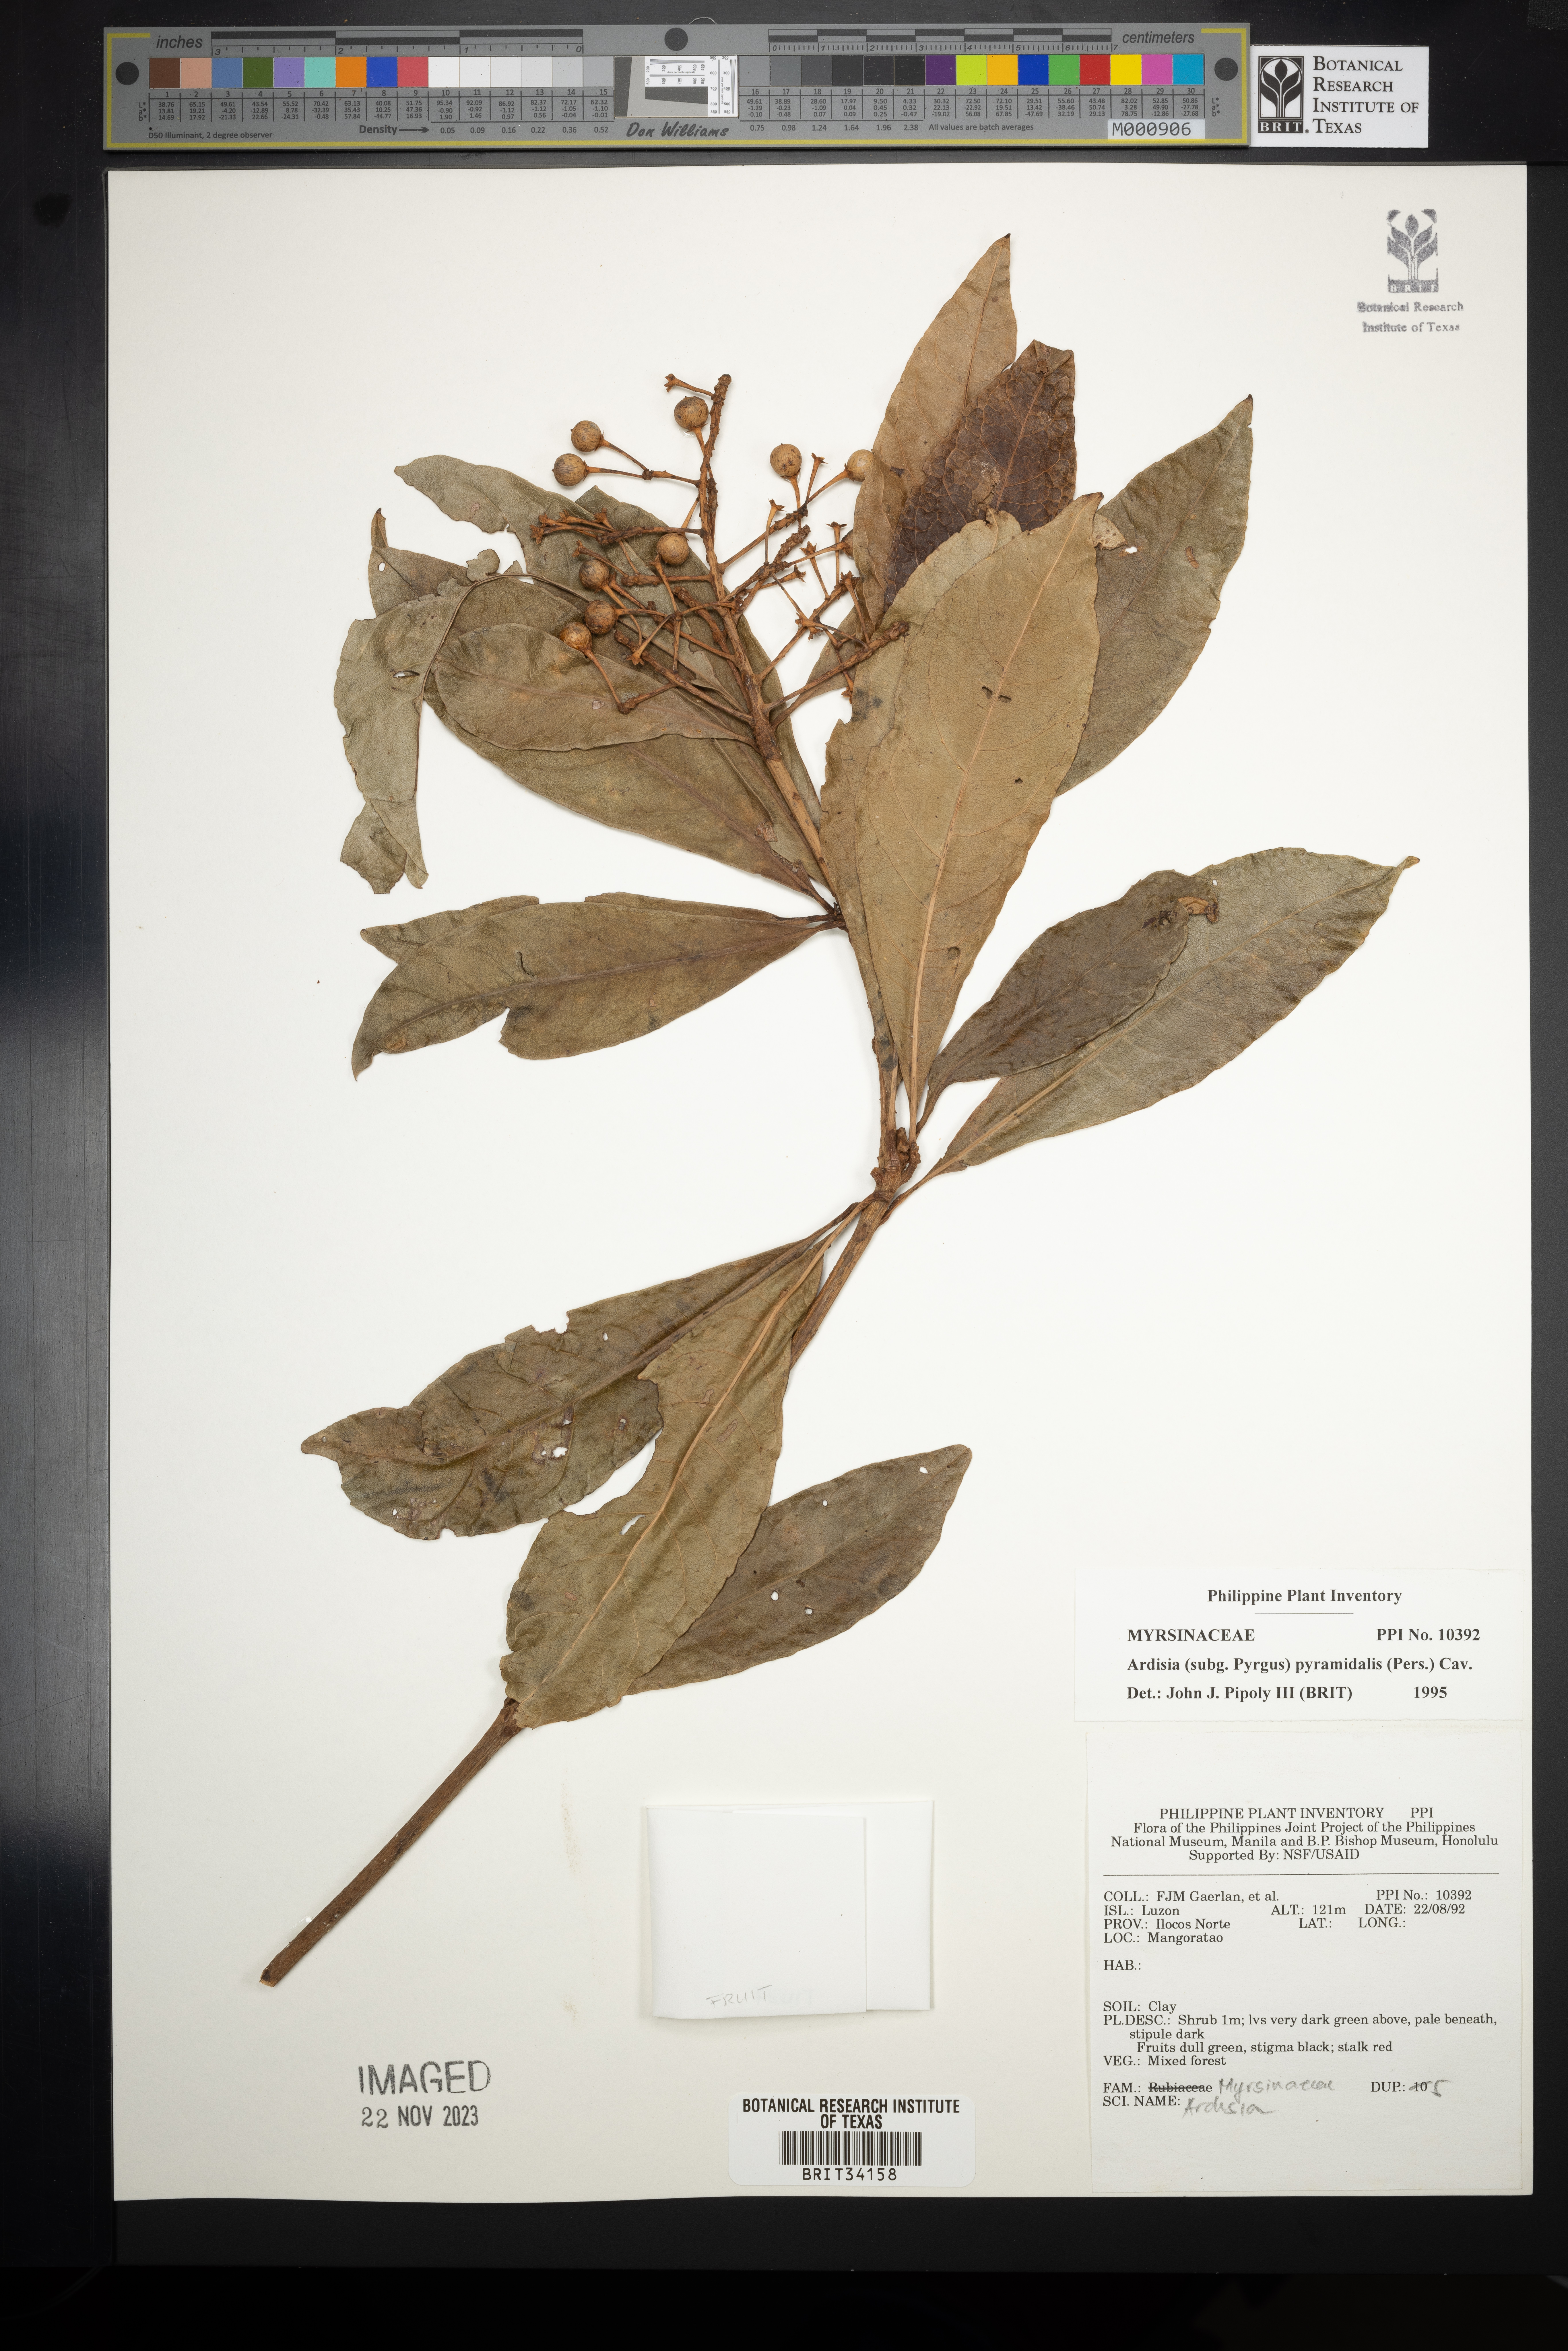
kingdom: Plantae
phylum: Tracheophyta
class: Magnoliopsida
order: Ericales
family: Primulaceae
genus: Ardisia
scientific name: Ardisia pyramidalis
